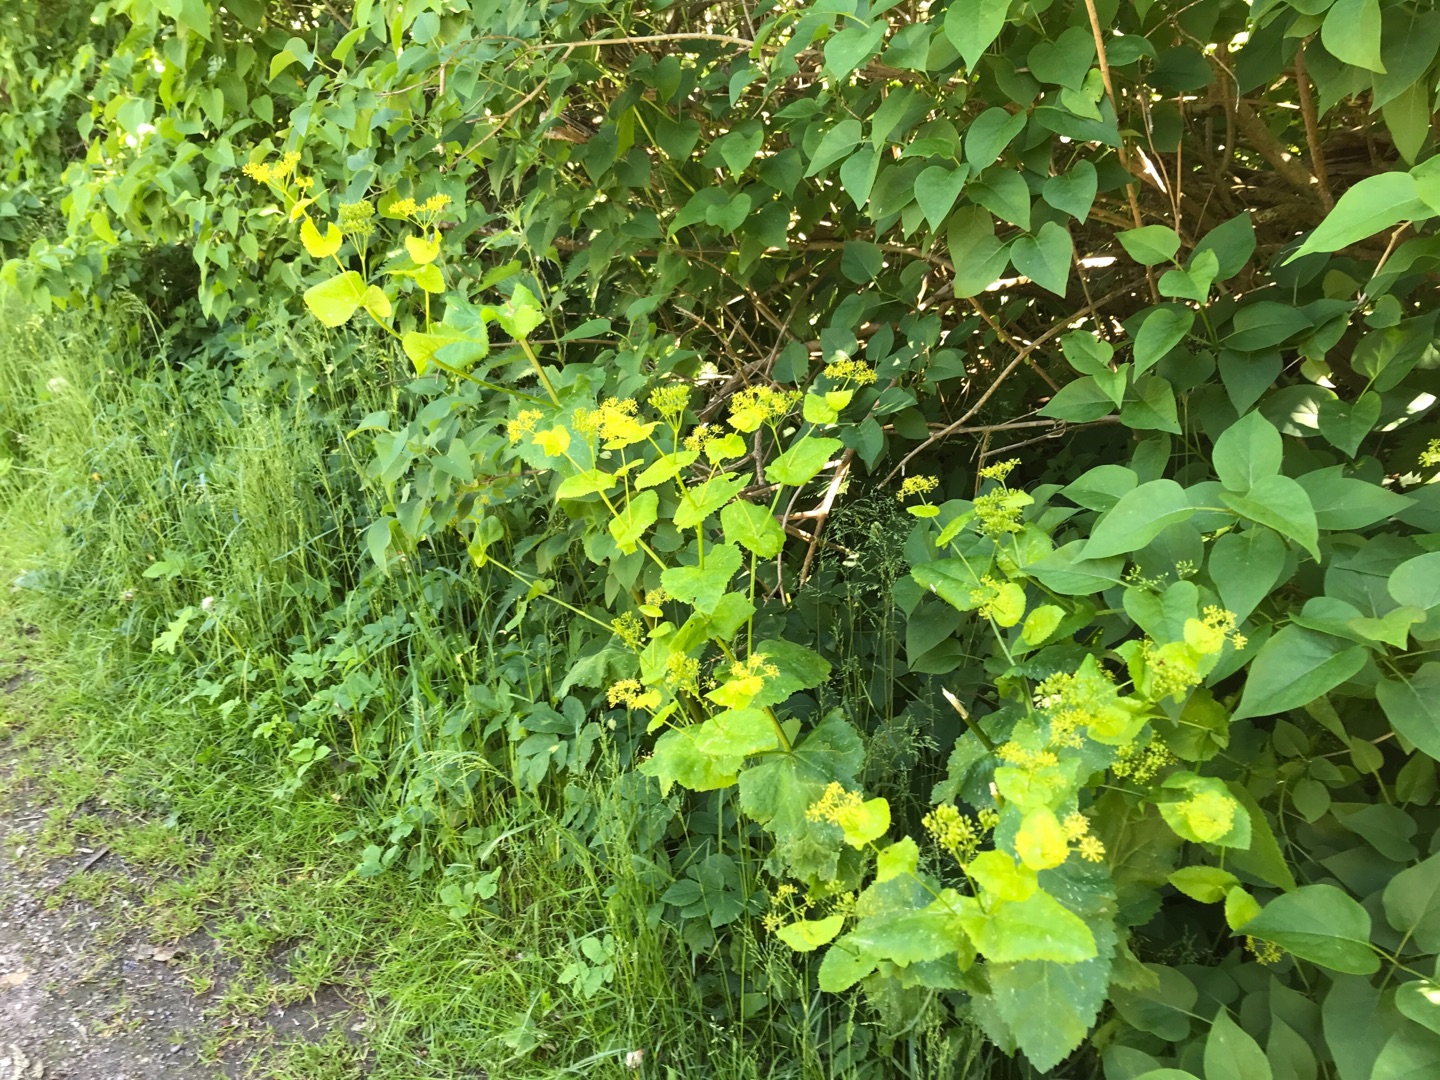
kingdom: Plantae
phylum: Tracheophyta
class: Magnoliopsida
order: Apiales
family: Apiaceae
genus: Smyrnium
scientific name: Smyrnium perfoliatum
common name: Lundgylden
